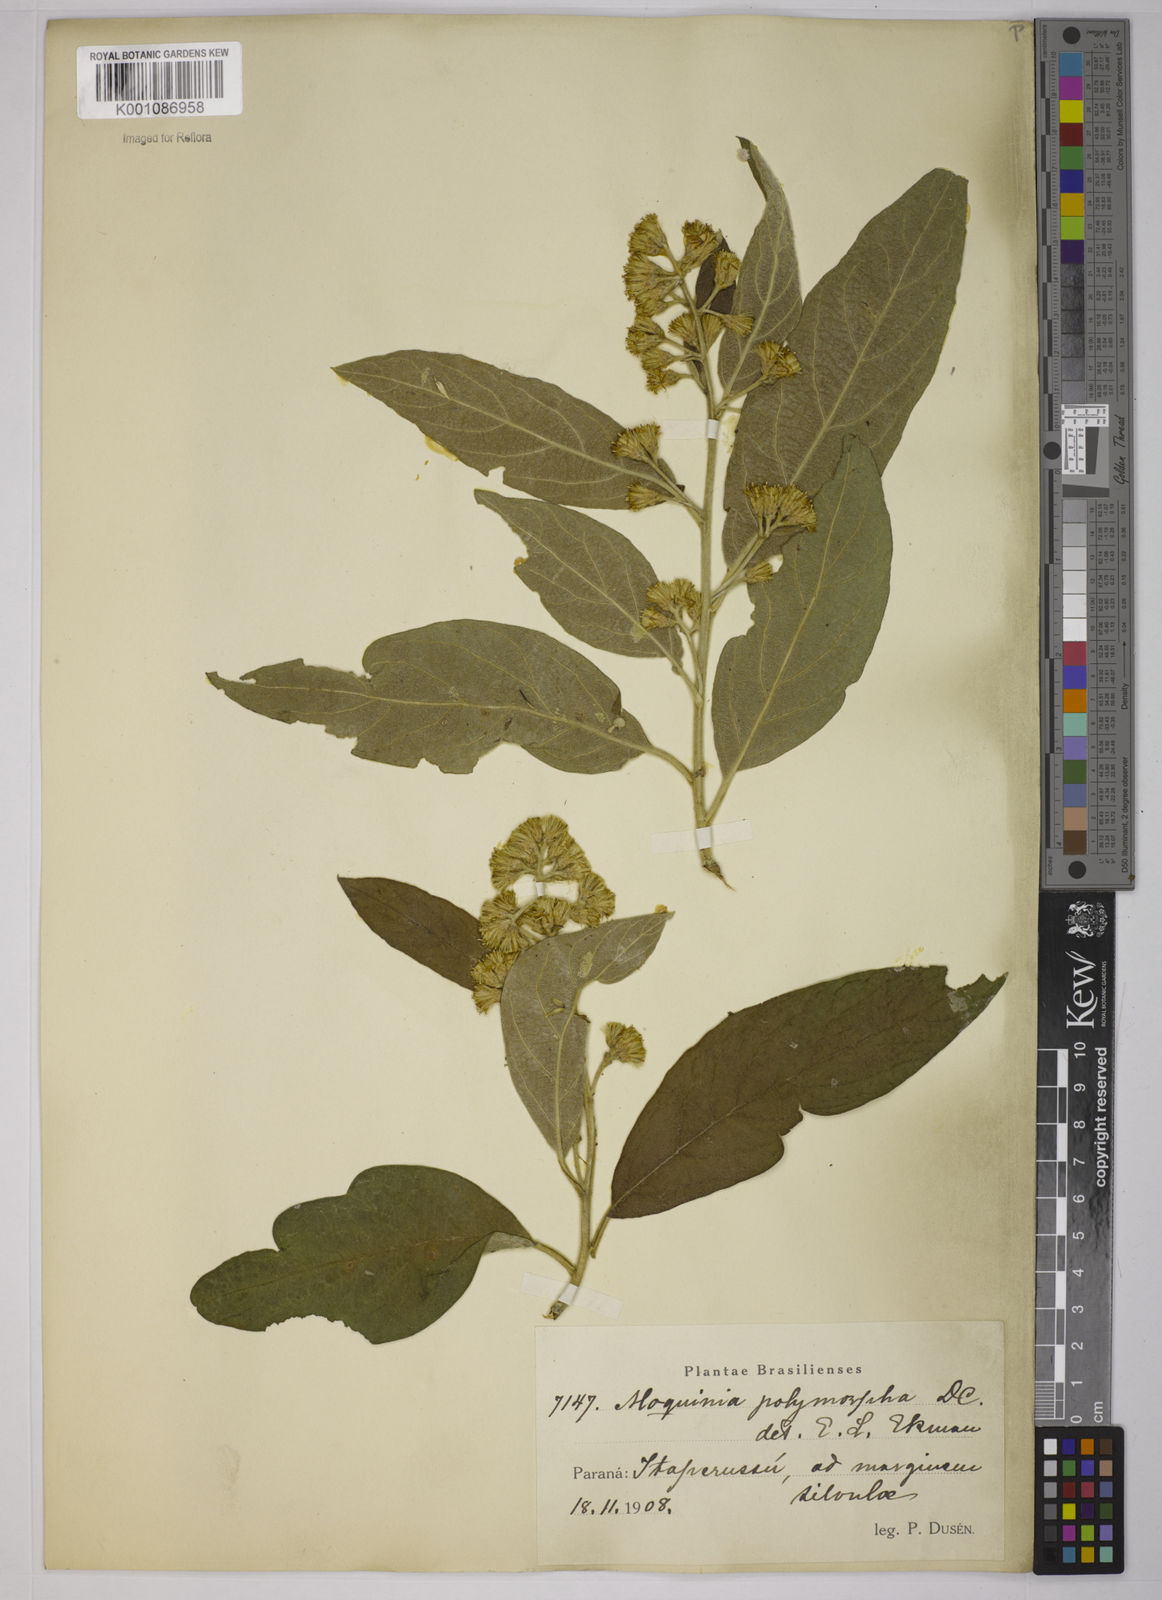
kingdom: Plantae
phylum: Tracheophyta
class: Magnoliopsida
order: Asterales
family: Asteraceae
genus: Moquiniastrum
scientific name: Moquiniastrum polymorphum
